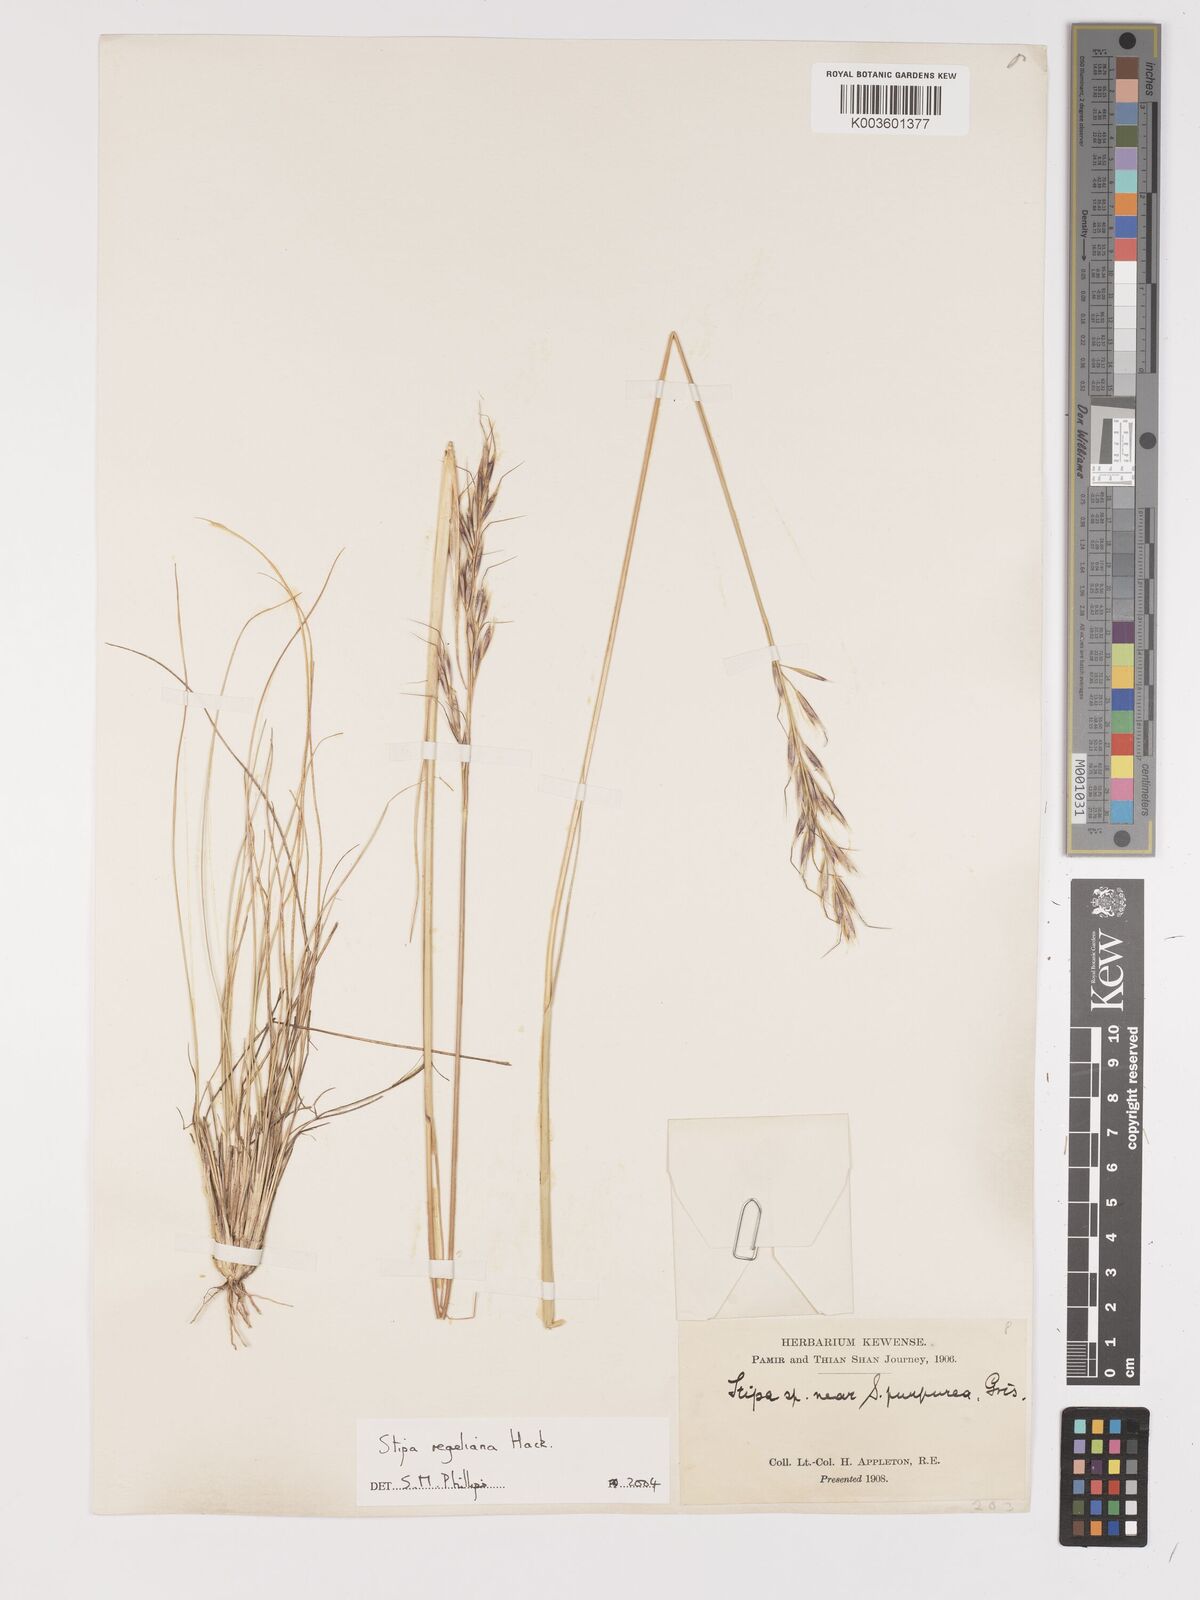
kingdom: Plantae
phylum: Tracheophyta
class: Liliopsida
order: Poales
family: Poaceae
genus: Stipa
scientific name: Stipa regeliana
